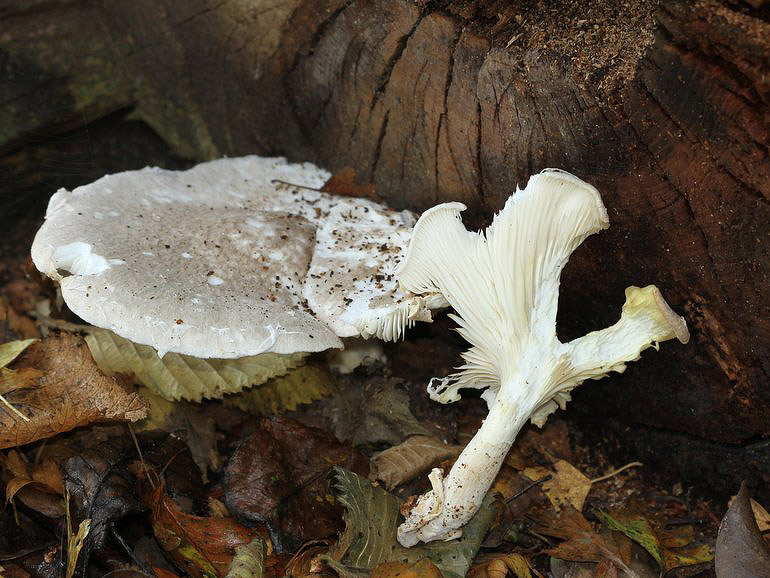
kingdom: Fungi
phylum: Basidiomycota
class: Agaricomycetes
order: Agaricales
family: Pleurotaceae
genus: Pleurotus
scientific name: Pleurotus dryinus
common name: korkagtig østershat
